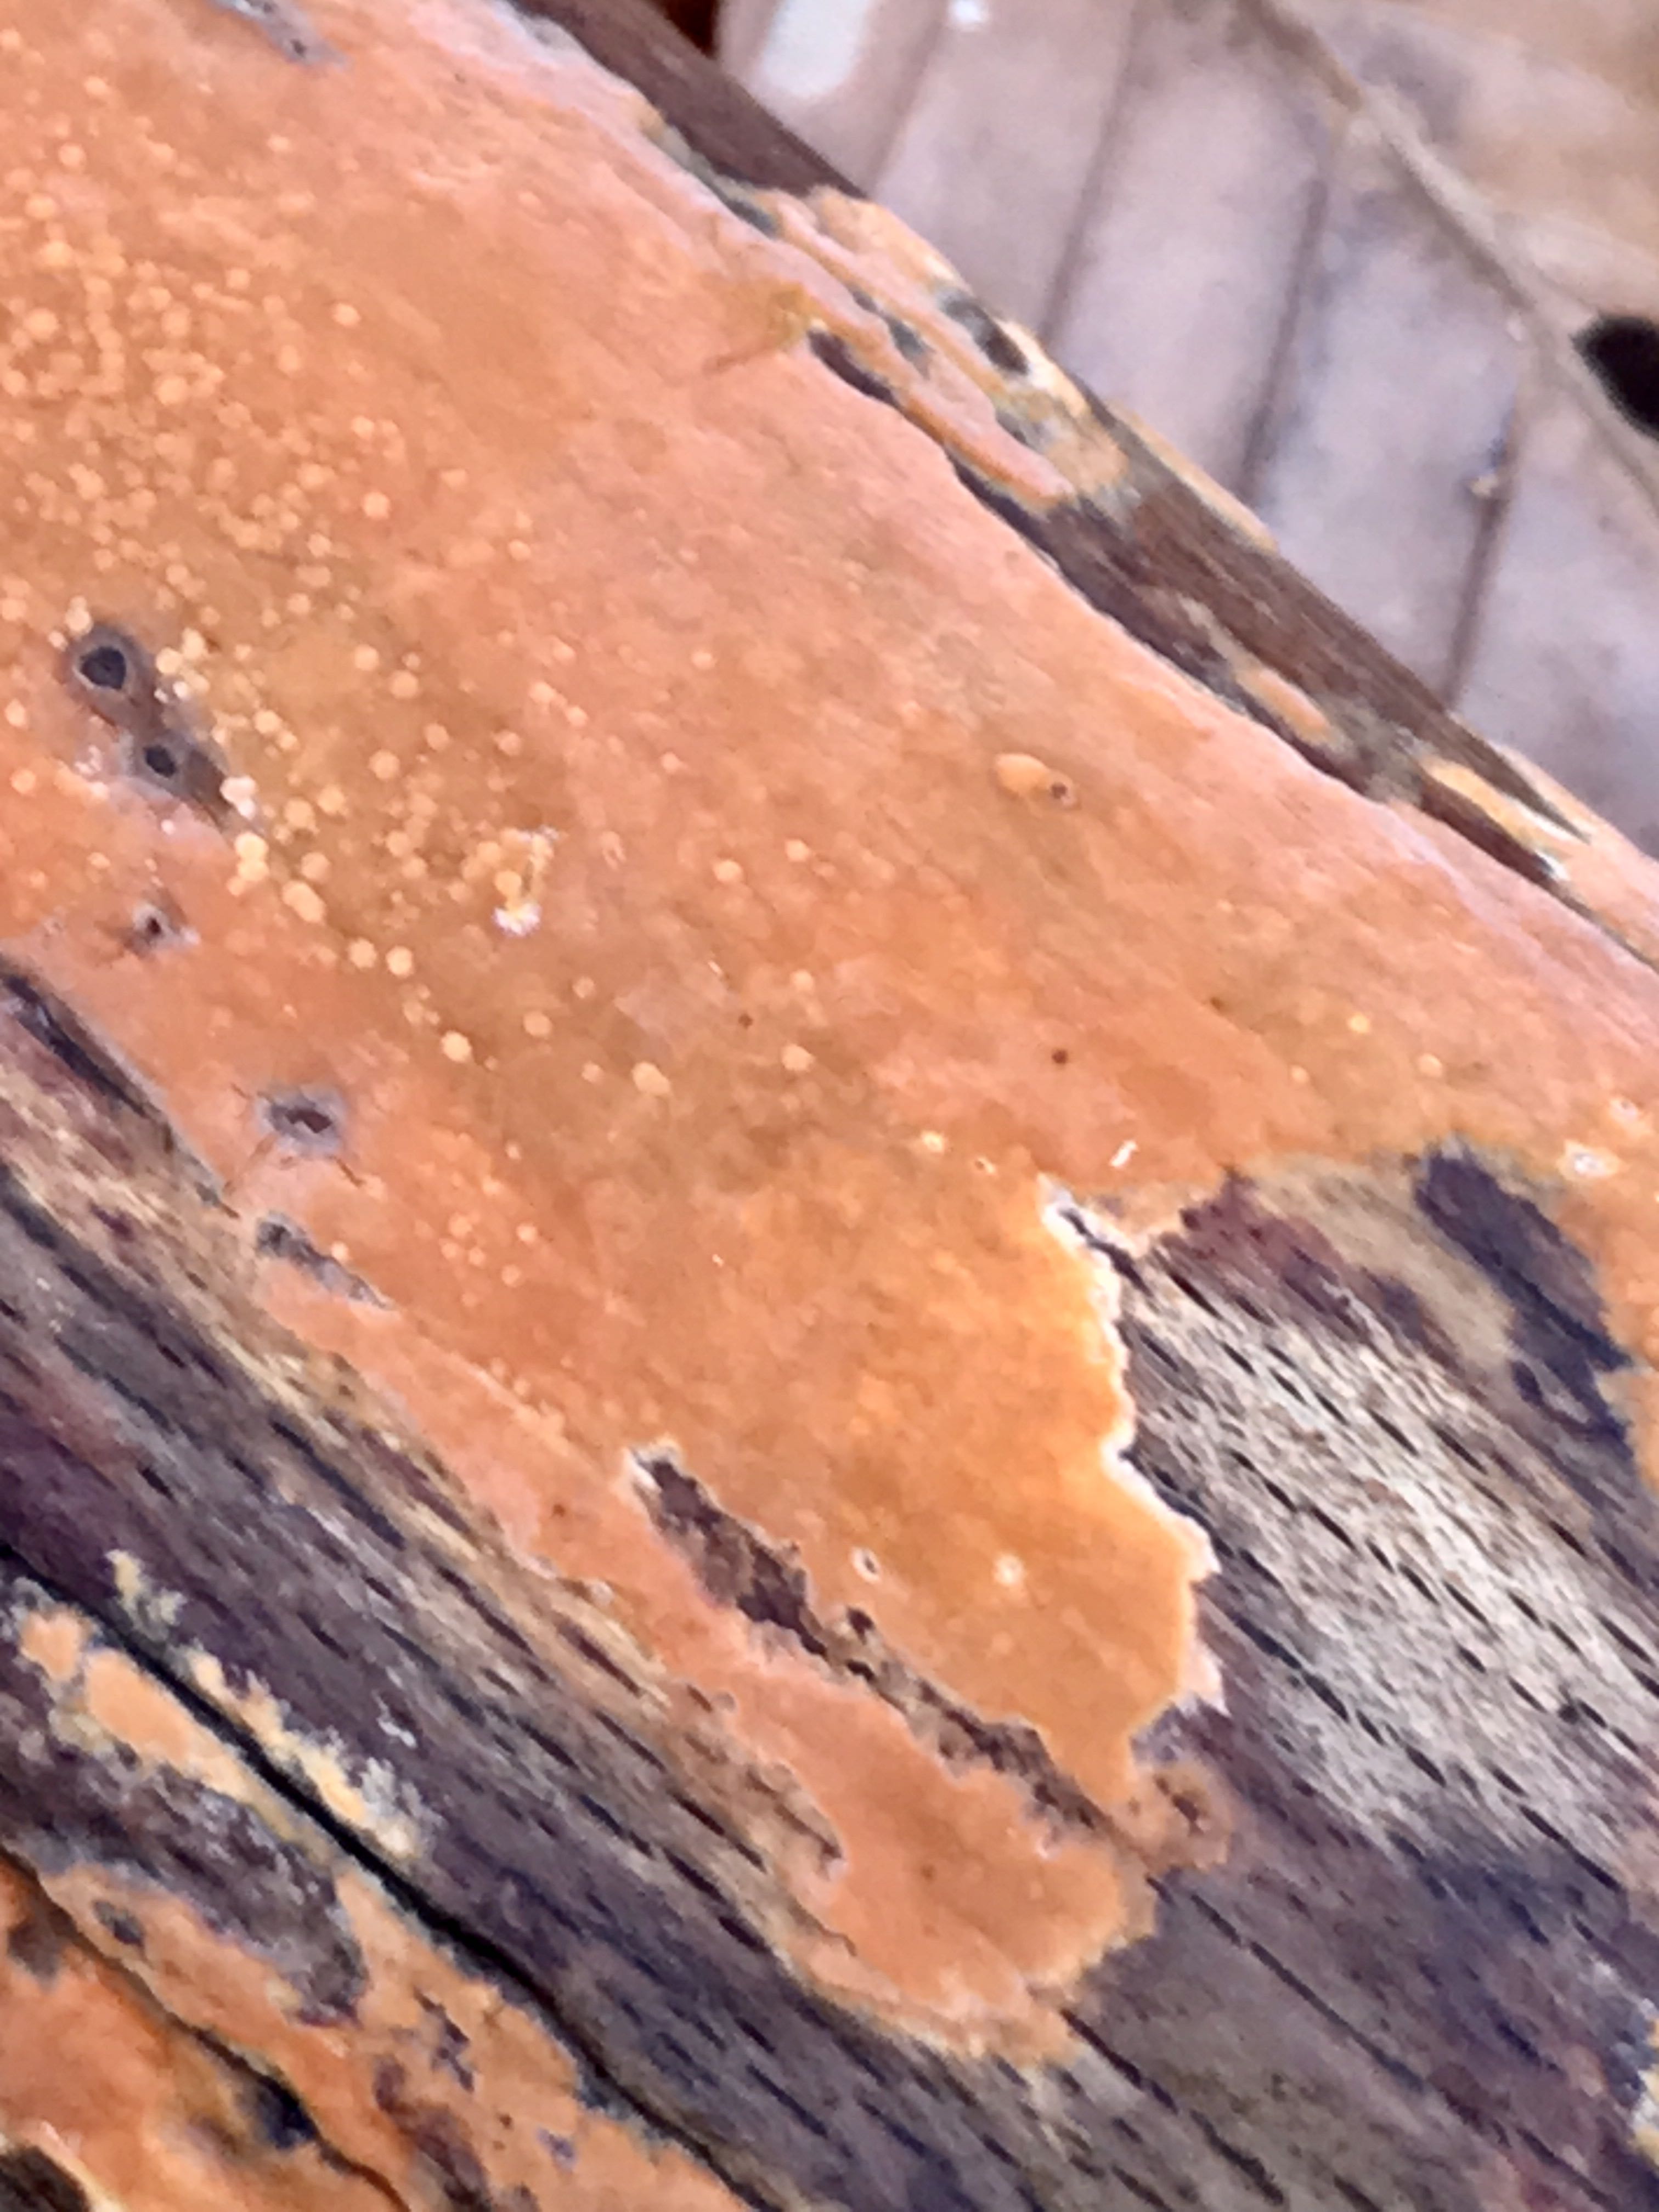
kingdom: Fungi
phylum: Basidiomycota
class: Agaricomycetes
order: Russulales
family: Peniophoraceae
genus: Peniophora
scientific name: Peniophora incarnata
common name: laksefarvet voksskind
